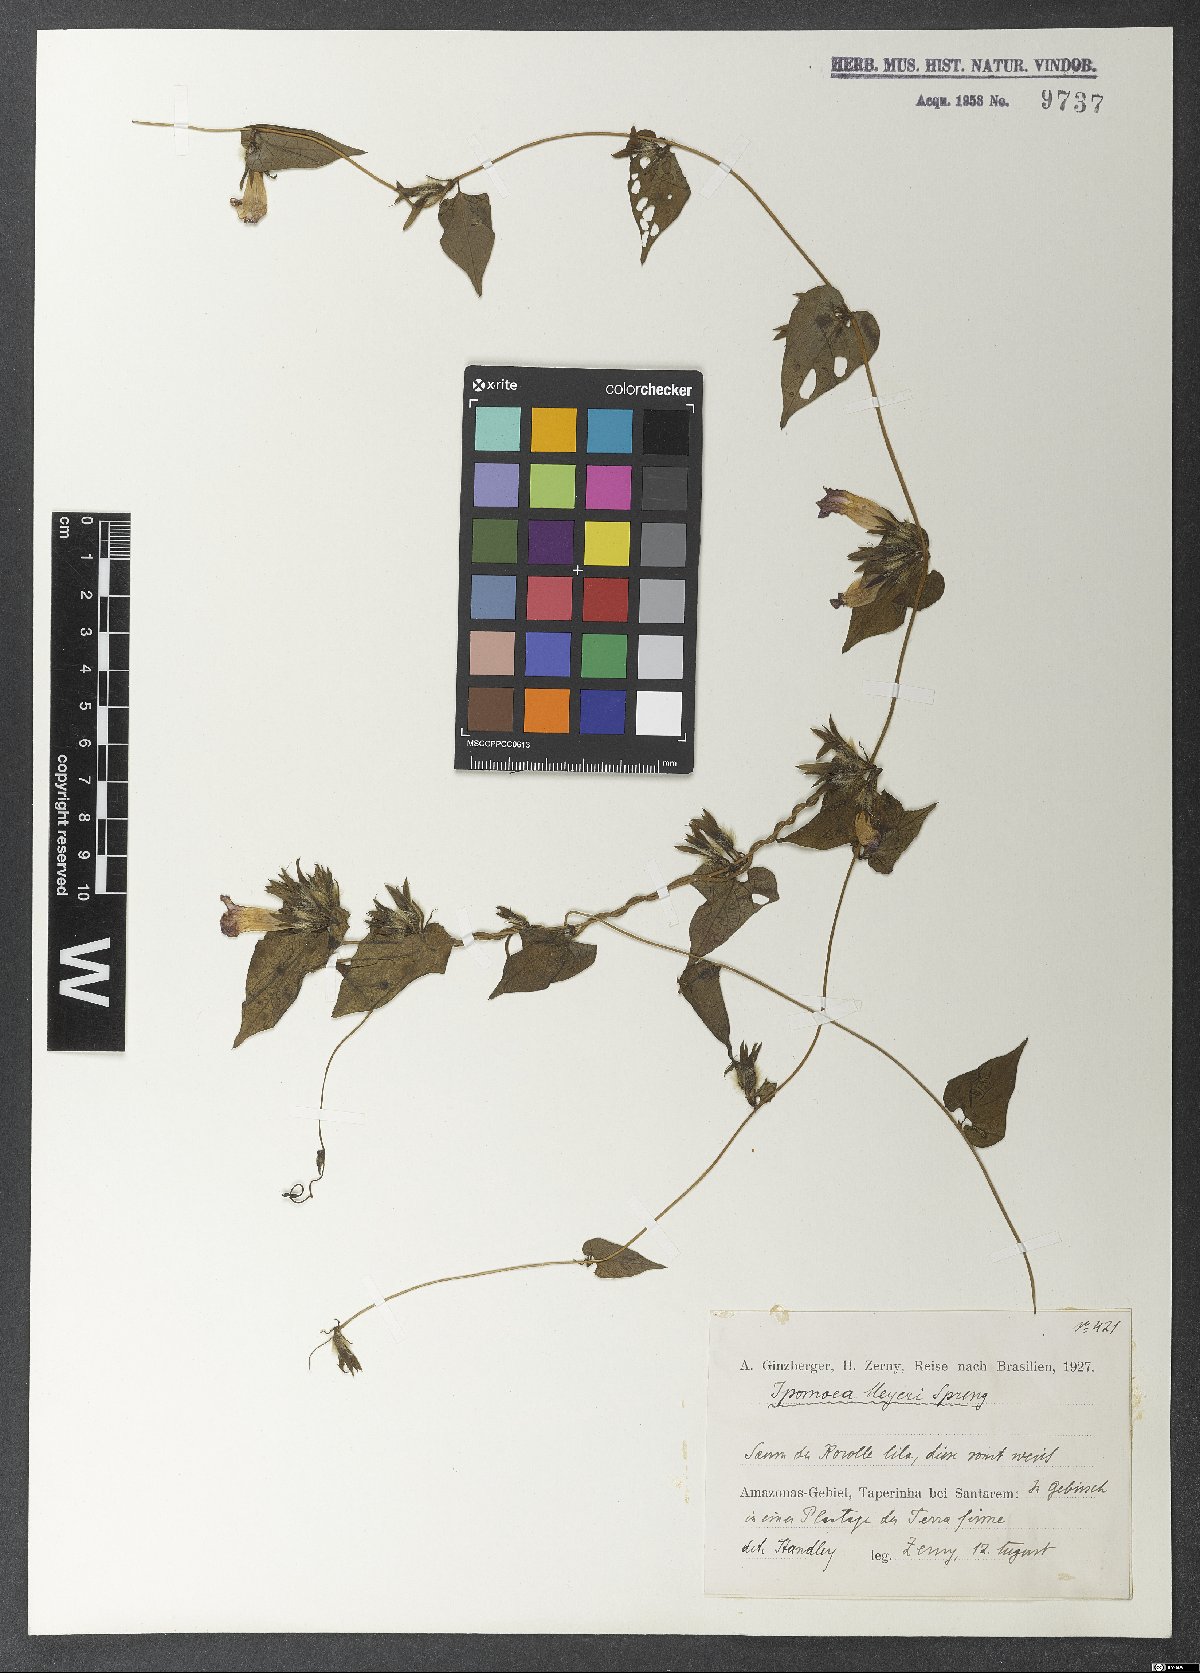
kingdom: Plantae
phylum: Tracheophyta
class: Magnoliopsida
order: Solanales
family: Convolvulaceae
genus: Ipomoea
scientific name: Ipomoea meyeri
